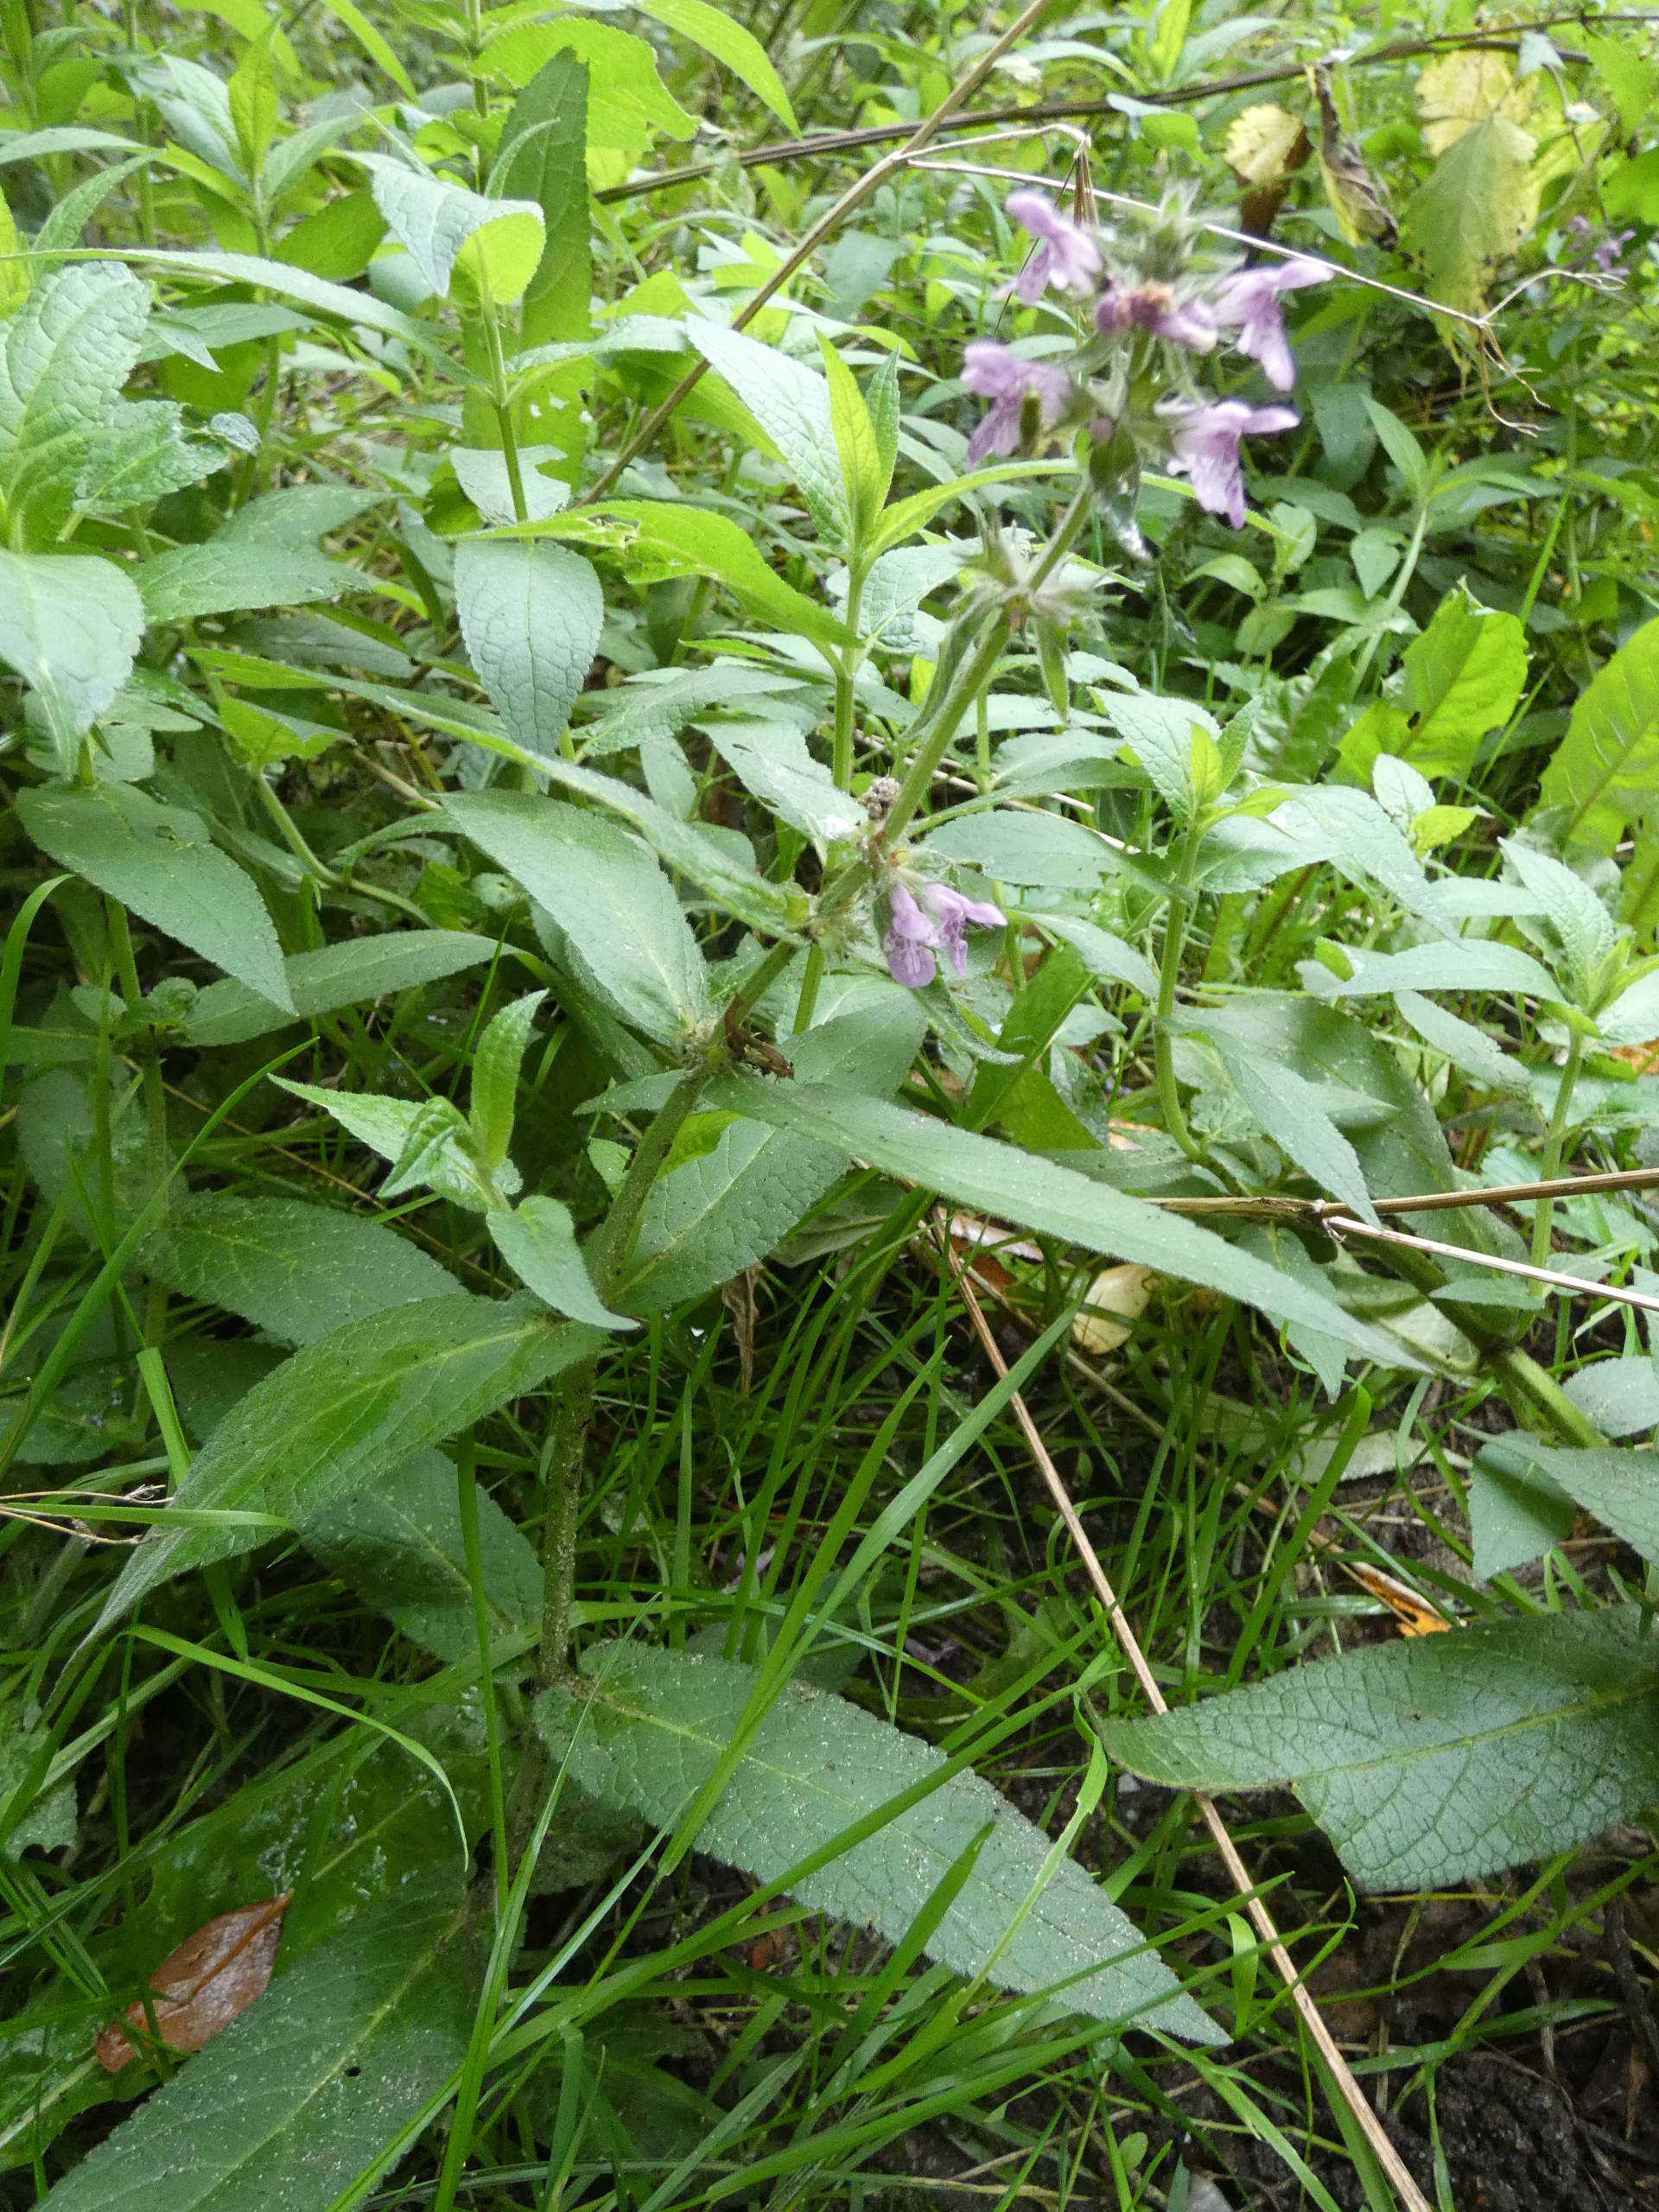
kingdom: Plantae
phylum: Tracheophyta
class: Magnoliopsida
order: Lamiales
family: Lamiaceae
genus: Stachys
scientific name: Stachys palustris
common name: Kær-galtetand
